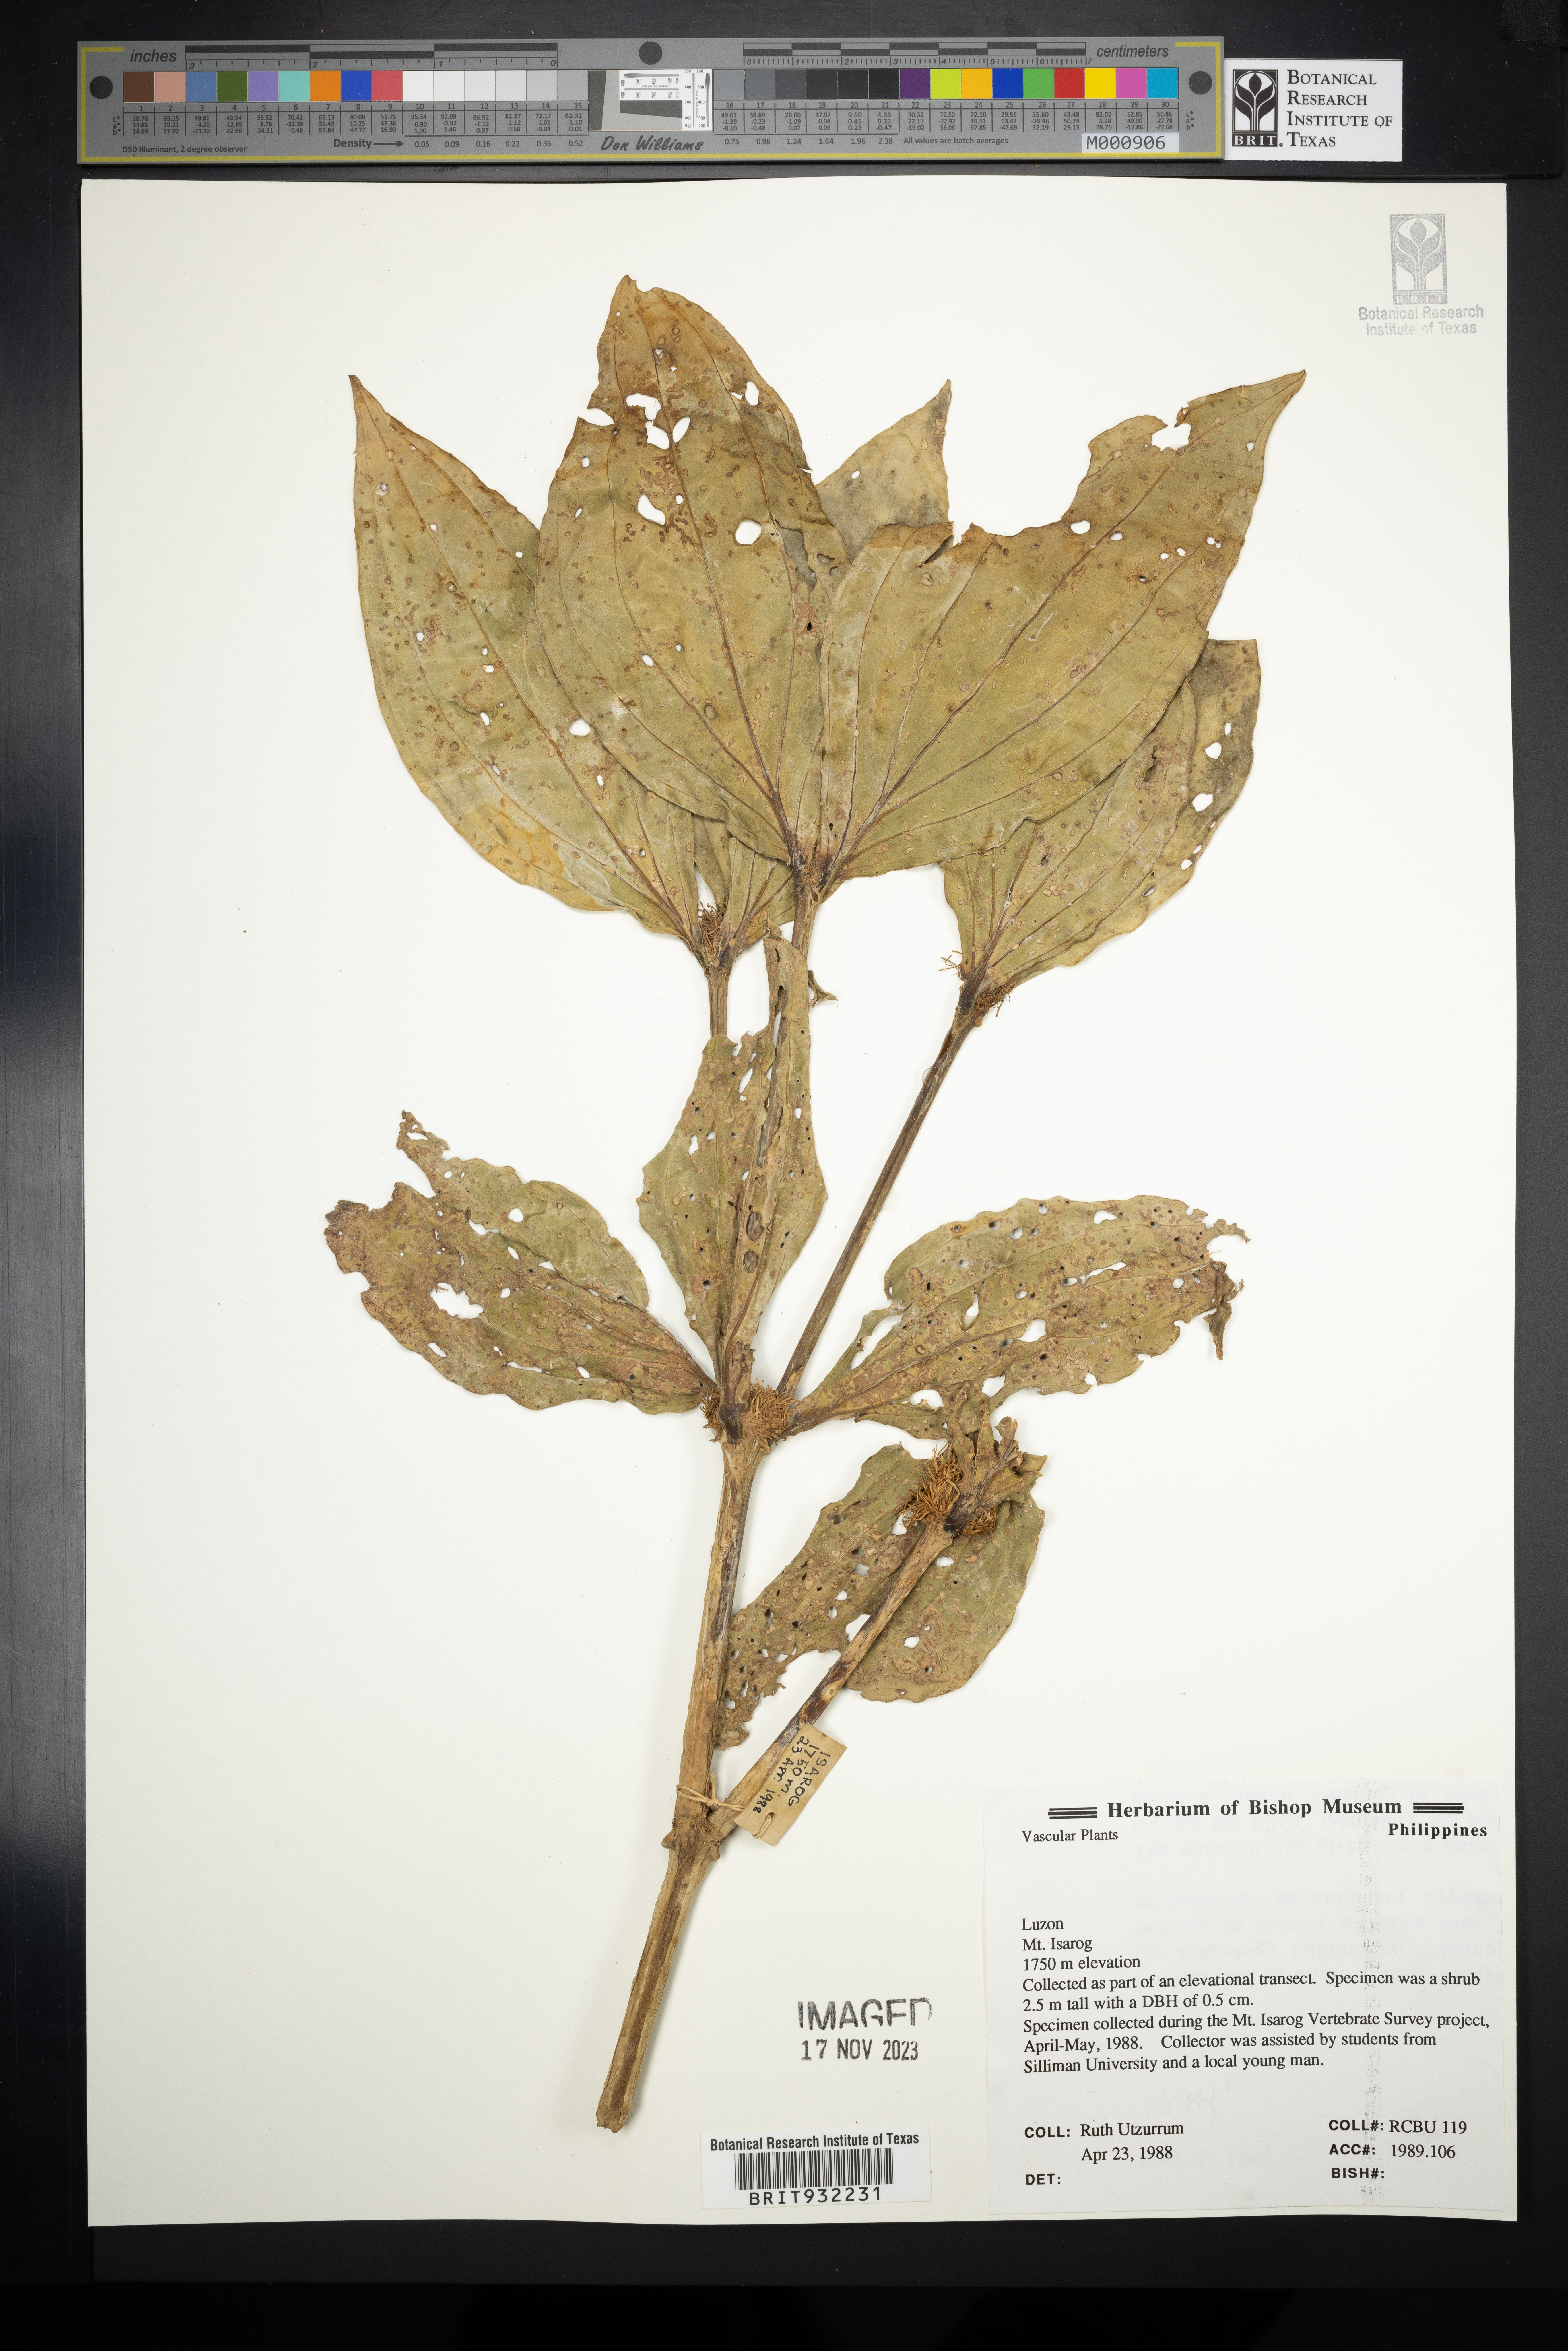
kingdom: Plantae
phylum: Tracheophyta
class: Magnoliopsida
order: Myrtales
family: Melastomataceae
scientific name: Melastomataceae
